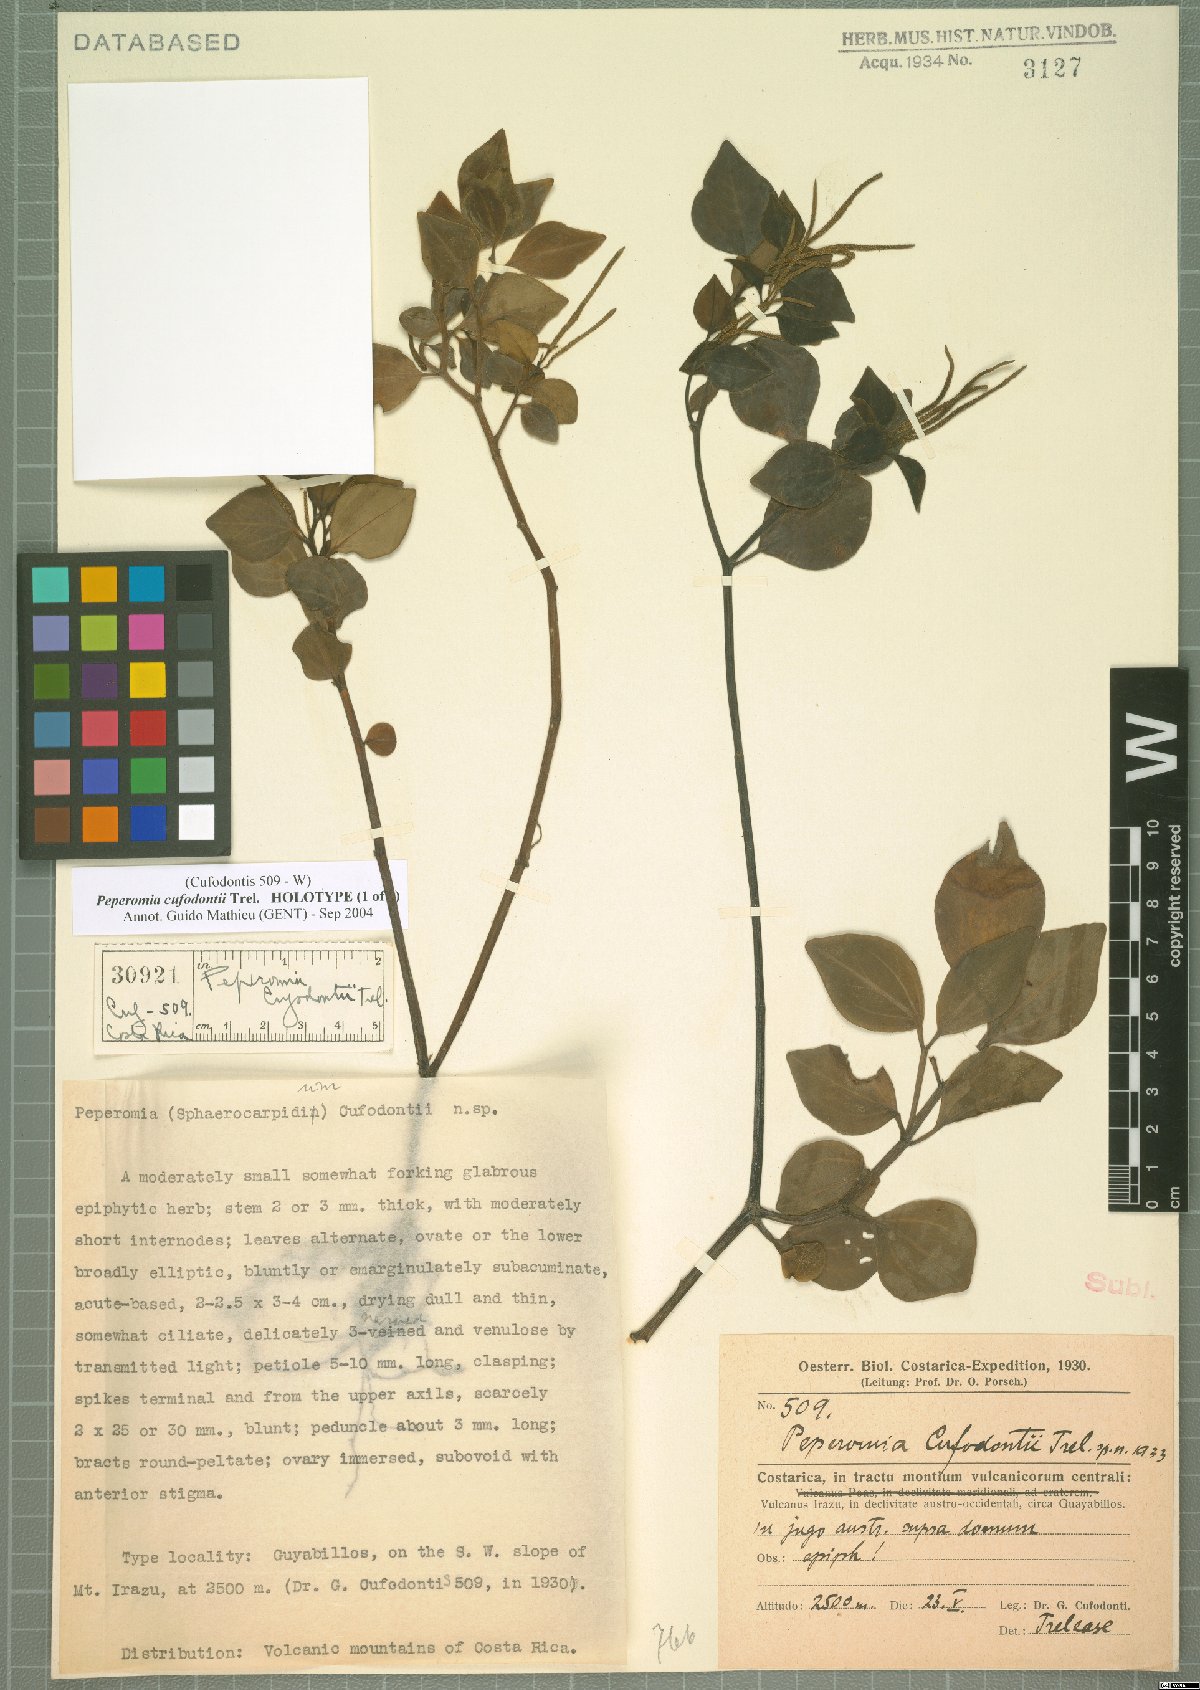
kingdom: Plantae
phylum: Tracheophyta
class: Magnoliopsida
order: Piperales
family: Piperaceae
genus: Peperomia
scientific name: Peperomia hylophila
